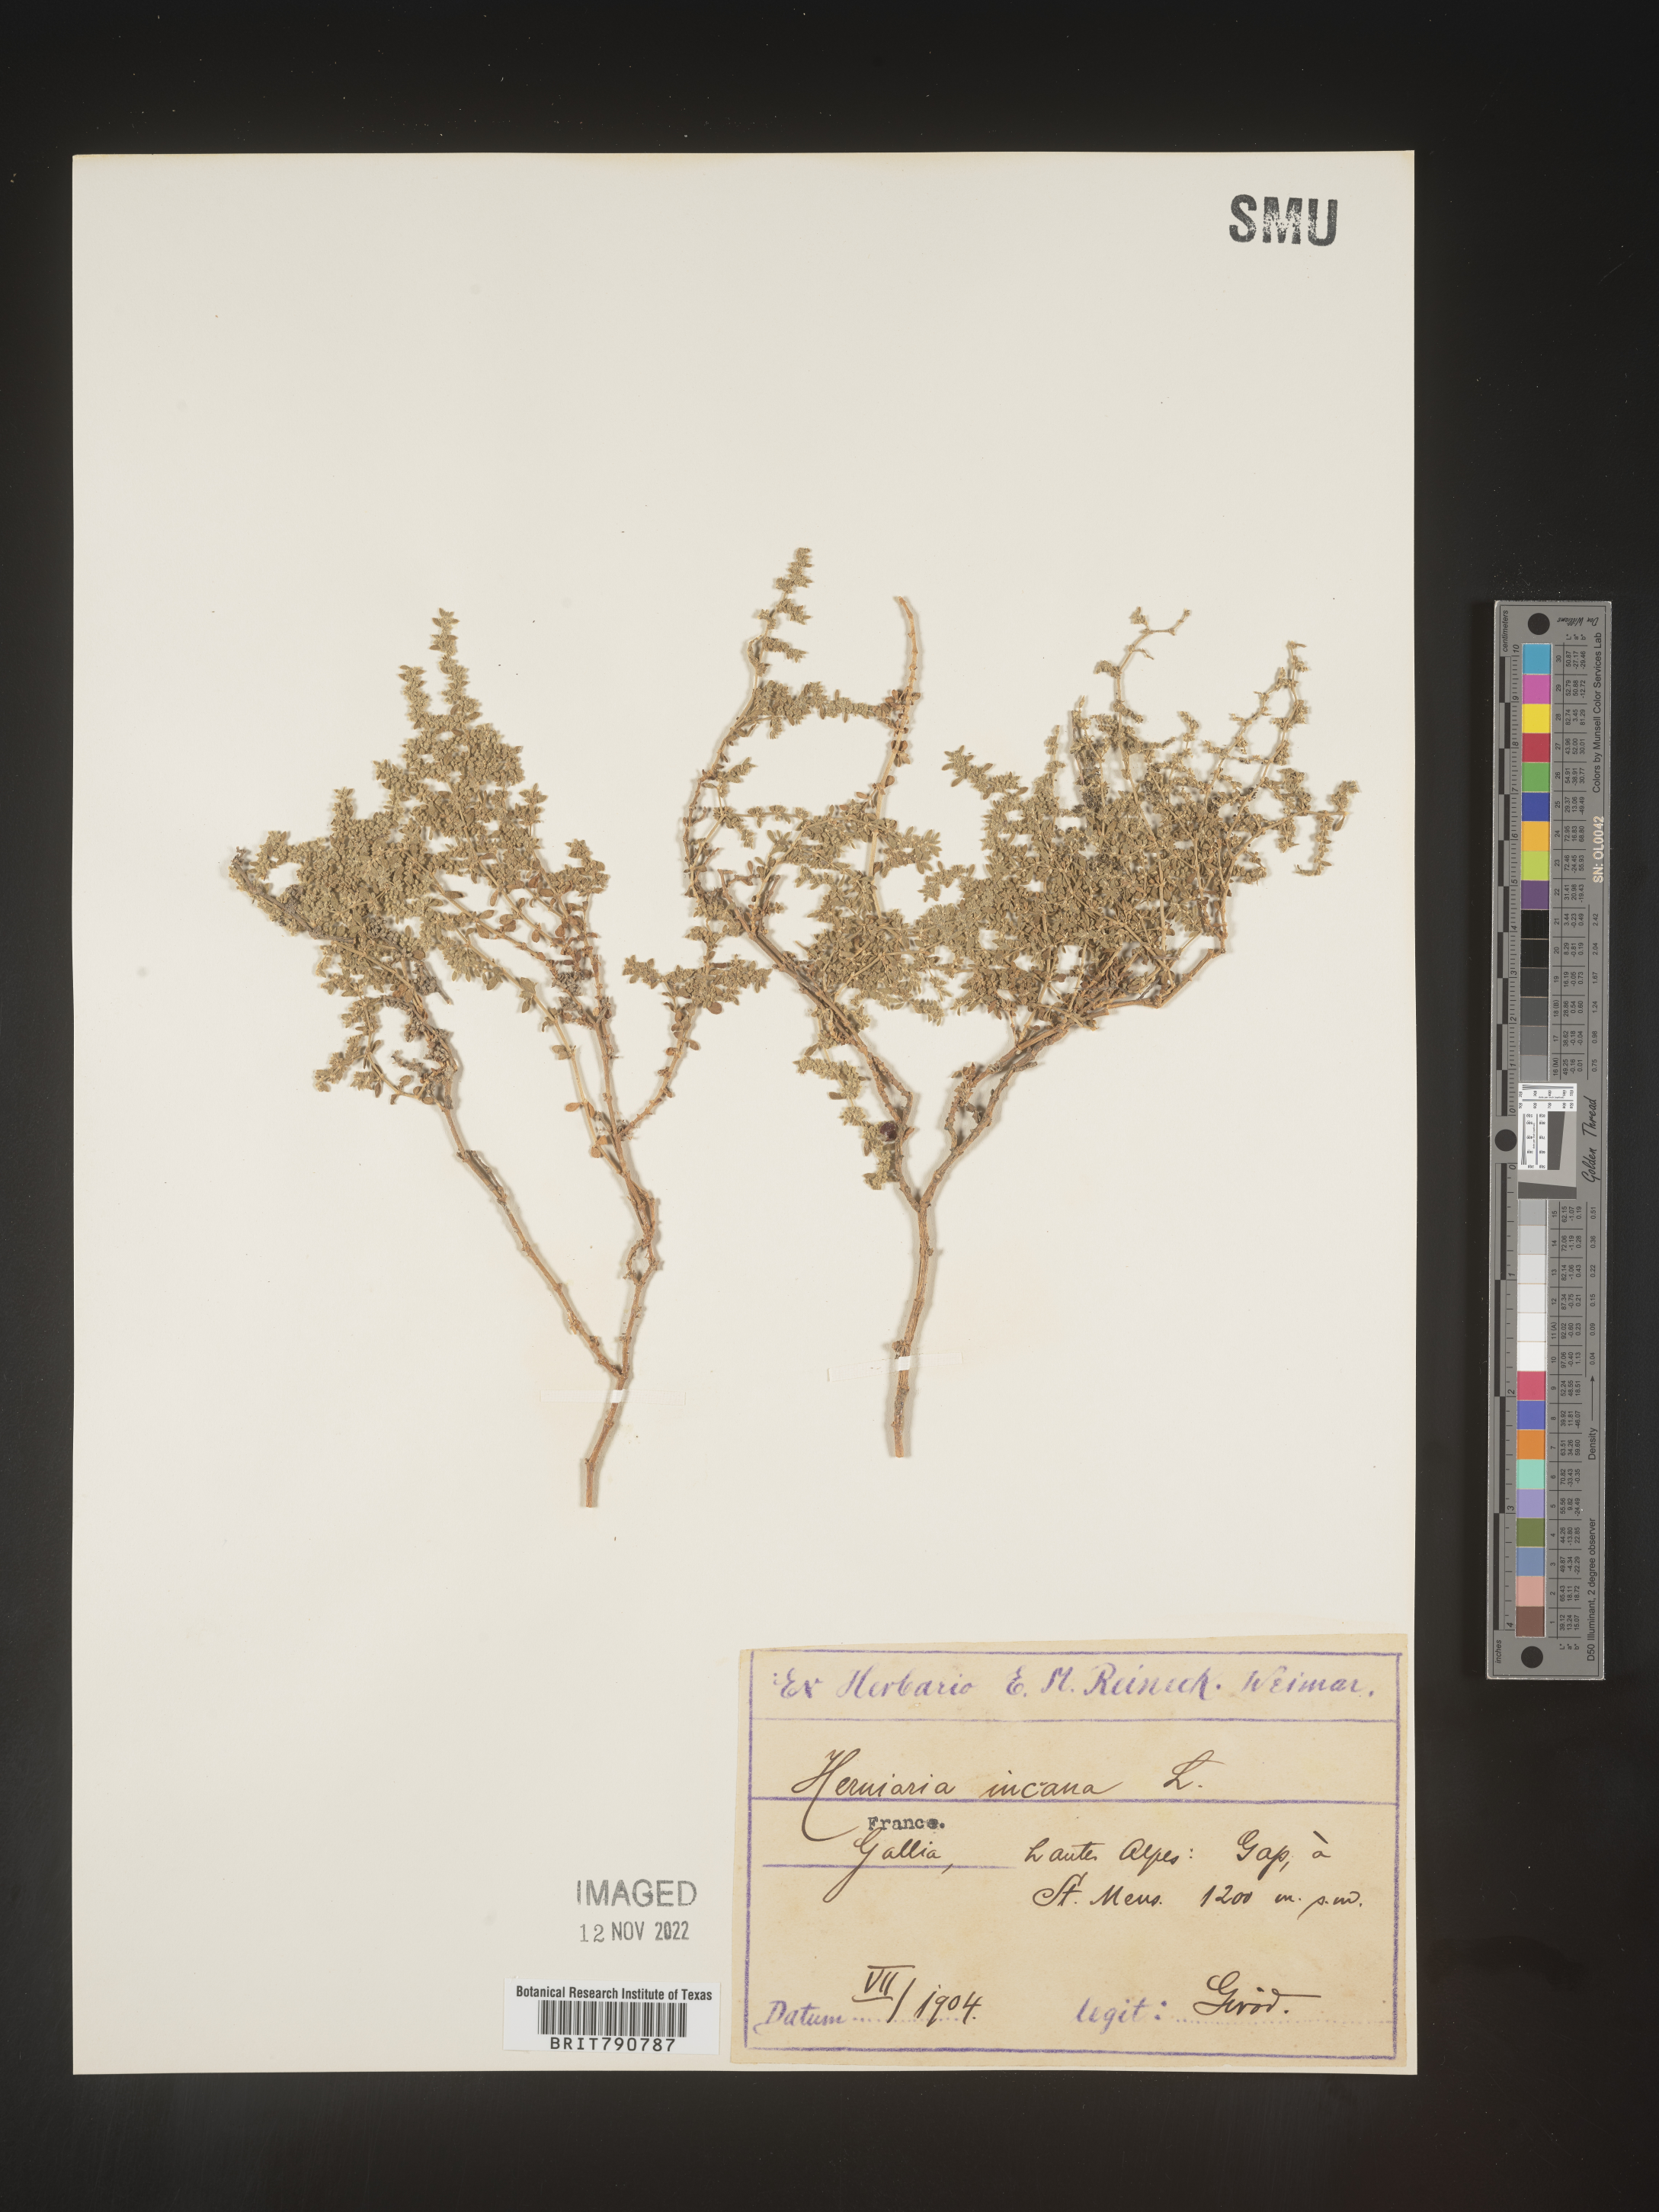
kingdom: Plantae
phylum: Tracheophyta
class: Magnoliopsida
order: Caryophyllales
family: Caryophyllaceae
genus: Herniaria
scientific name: Herniaria
